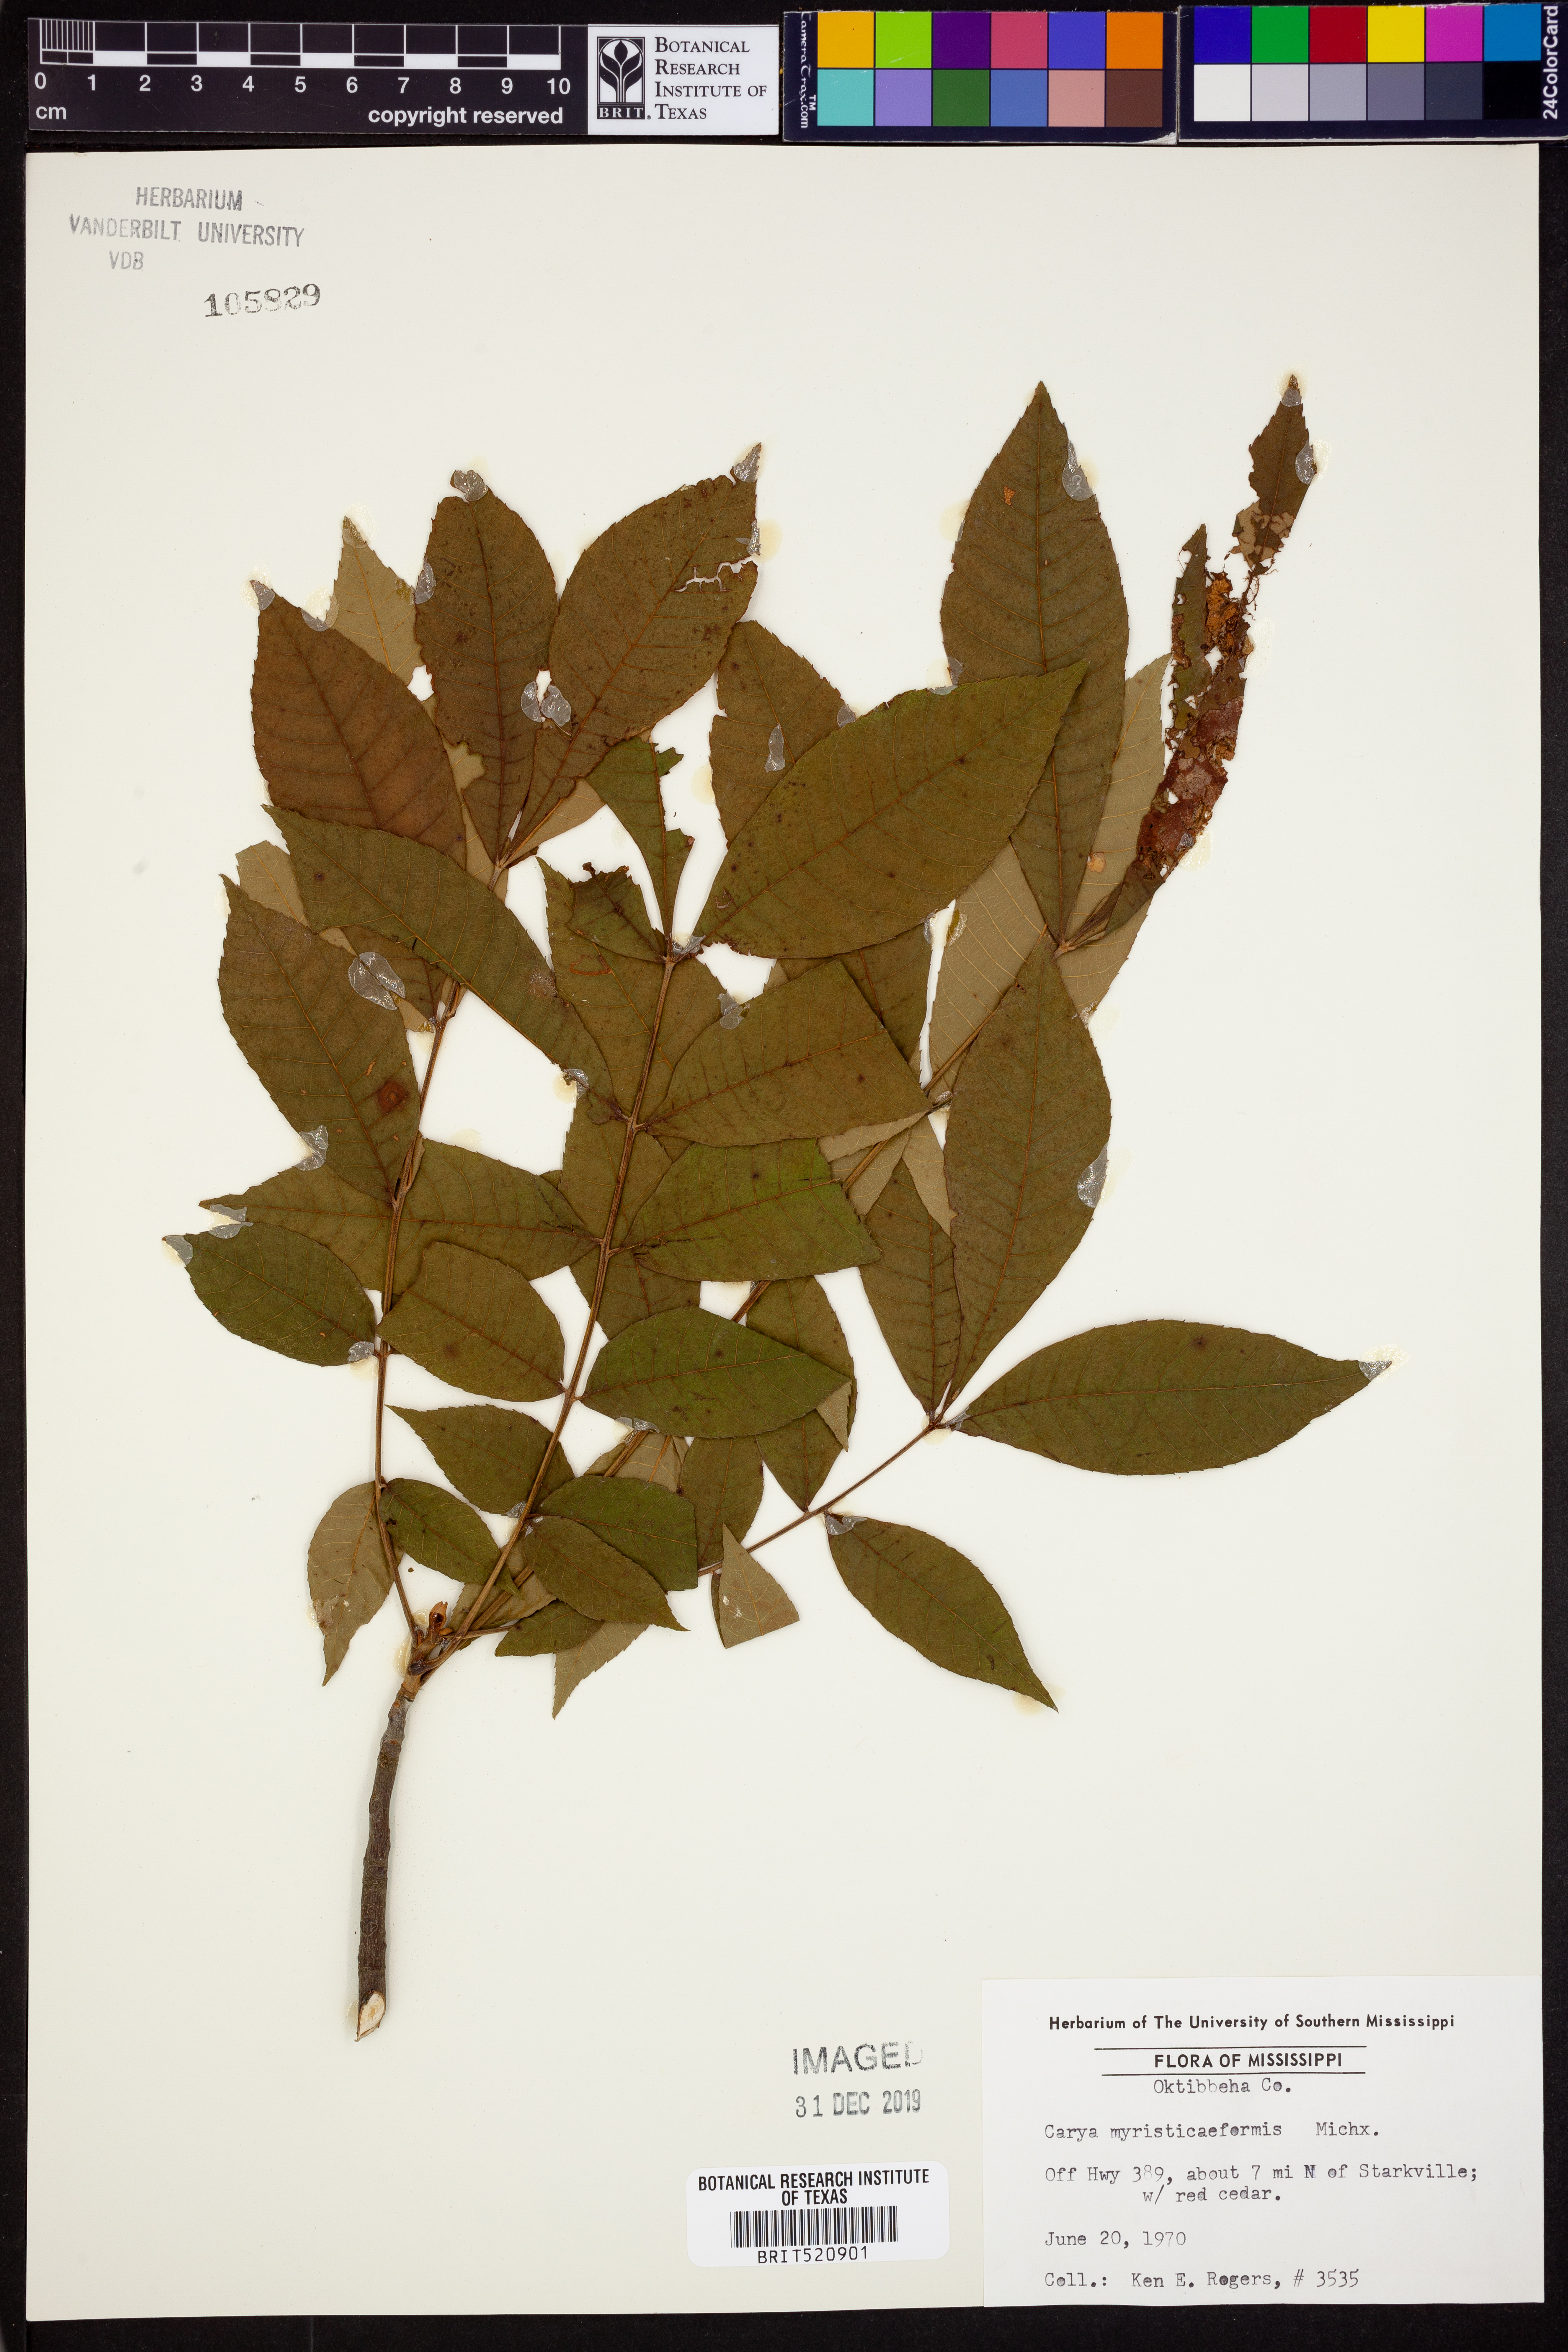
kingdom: Plantae
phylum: Tracheophyta
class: Magnoliopsida
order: Fagales
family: Juglandaceae
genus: Carya
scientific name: Carya myristiciformis
